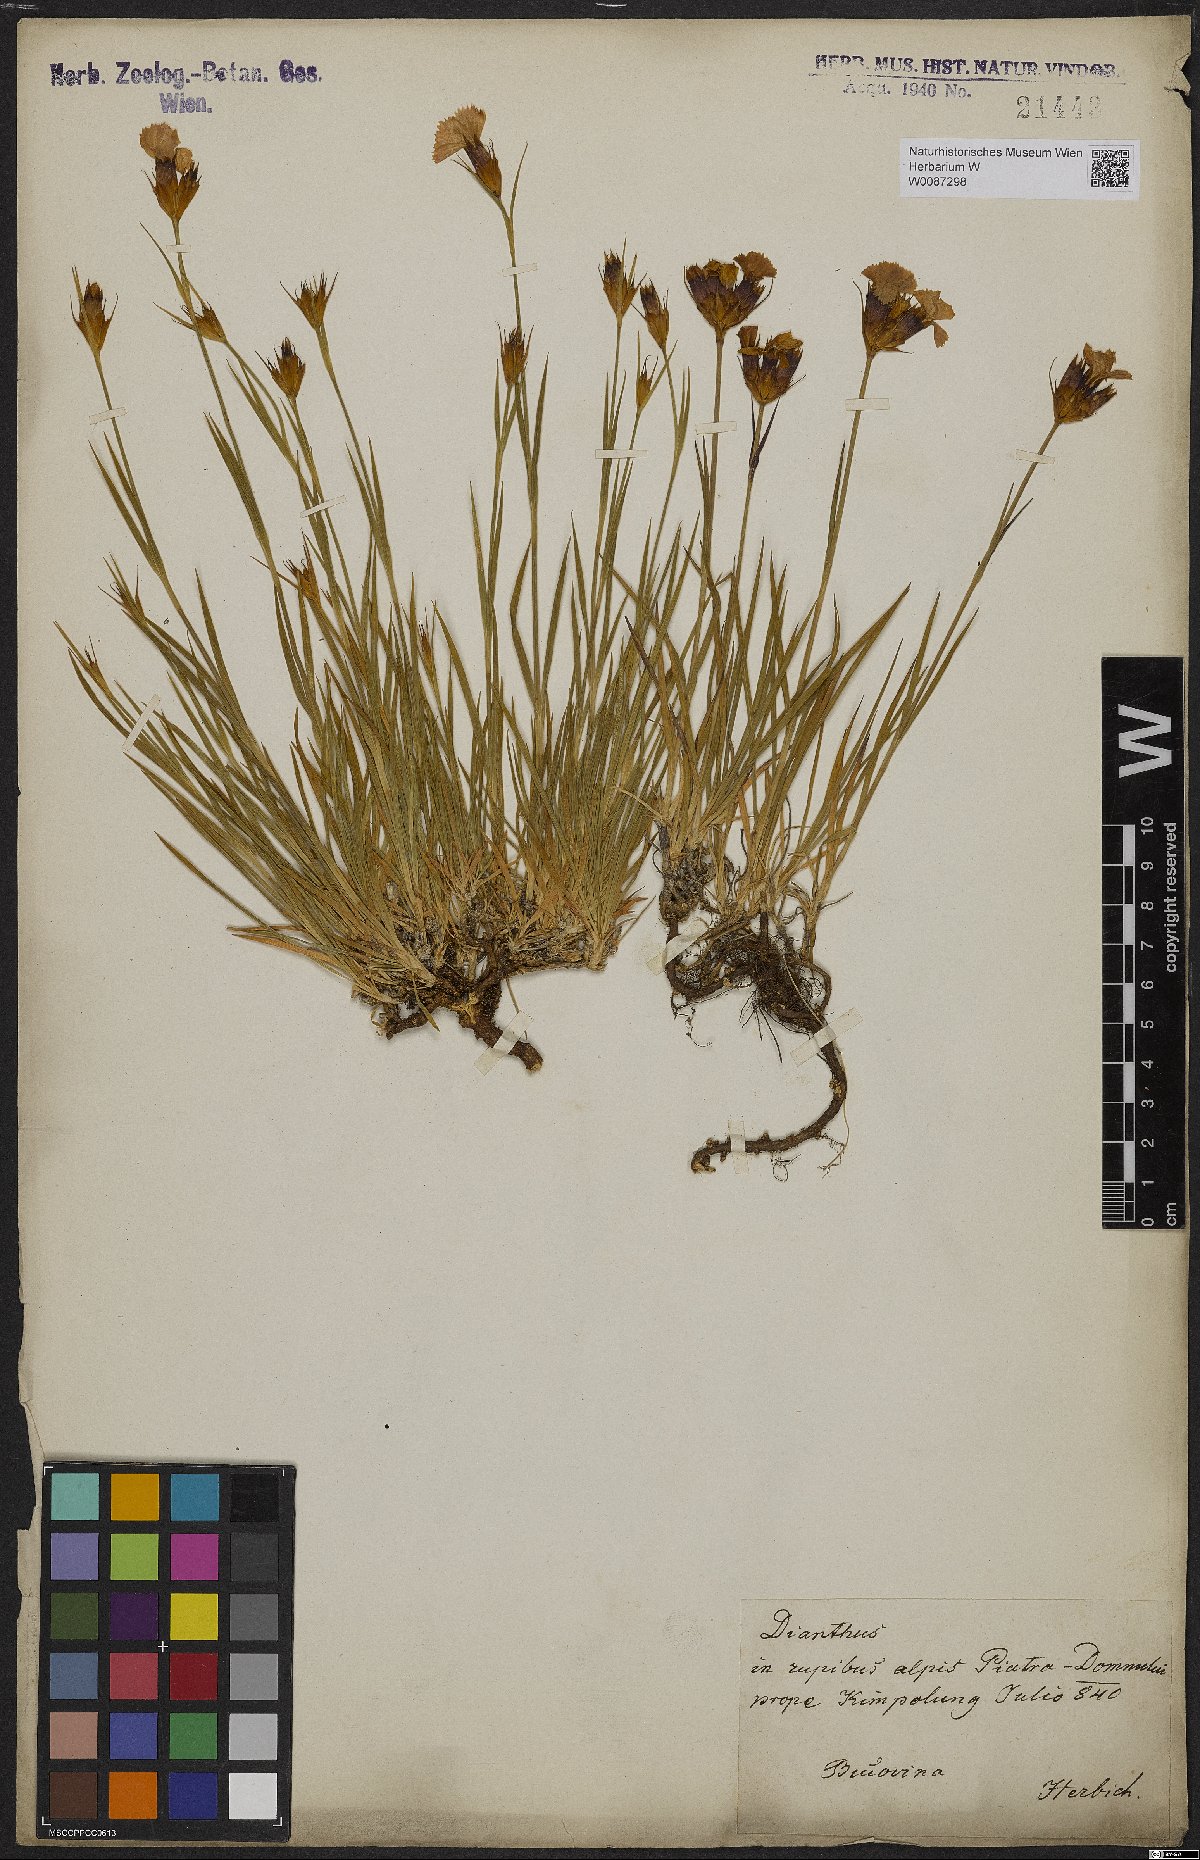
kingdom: Plantae
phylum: Tracheophyta
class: Magnoliopsida
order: Caryophyllales
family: Caryophyllaceae
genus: Dianthus
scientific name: Dianthus
